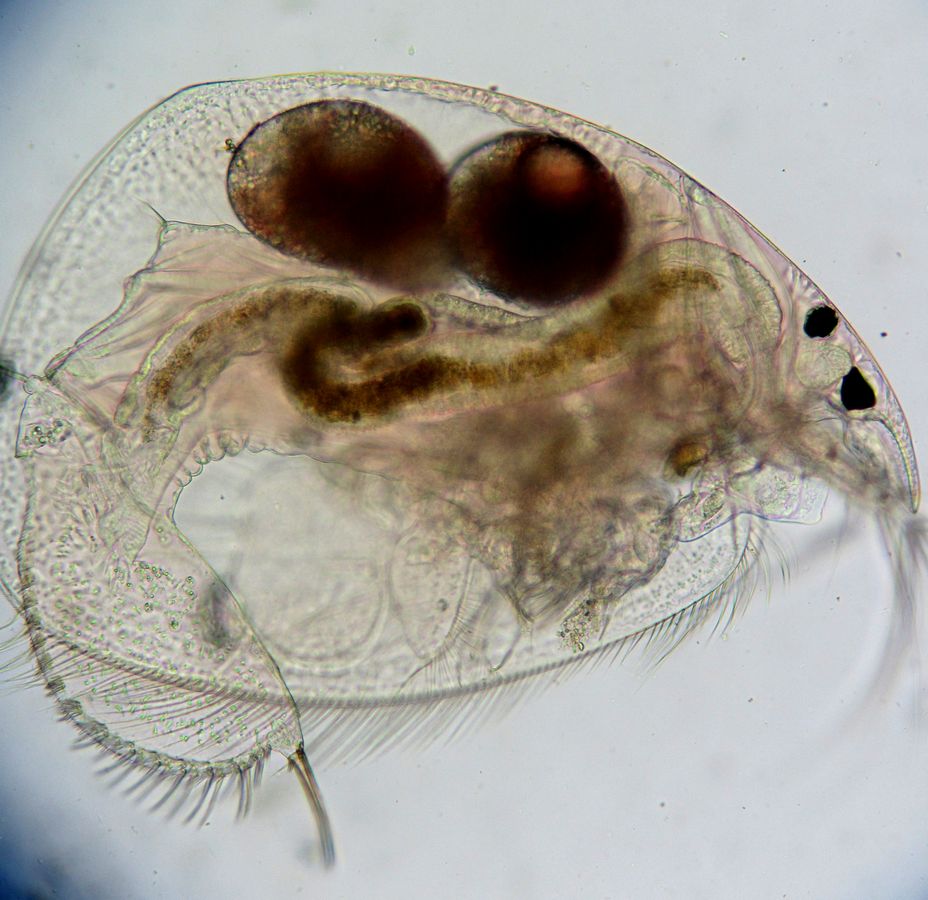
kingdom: Animalia
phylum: Arthropoda
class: Branchiopoda
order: Diplostraca
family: Chydoridae
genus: Leydigia
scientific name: Leydigia leydigi
